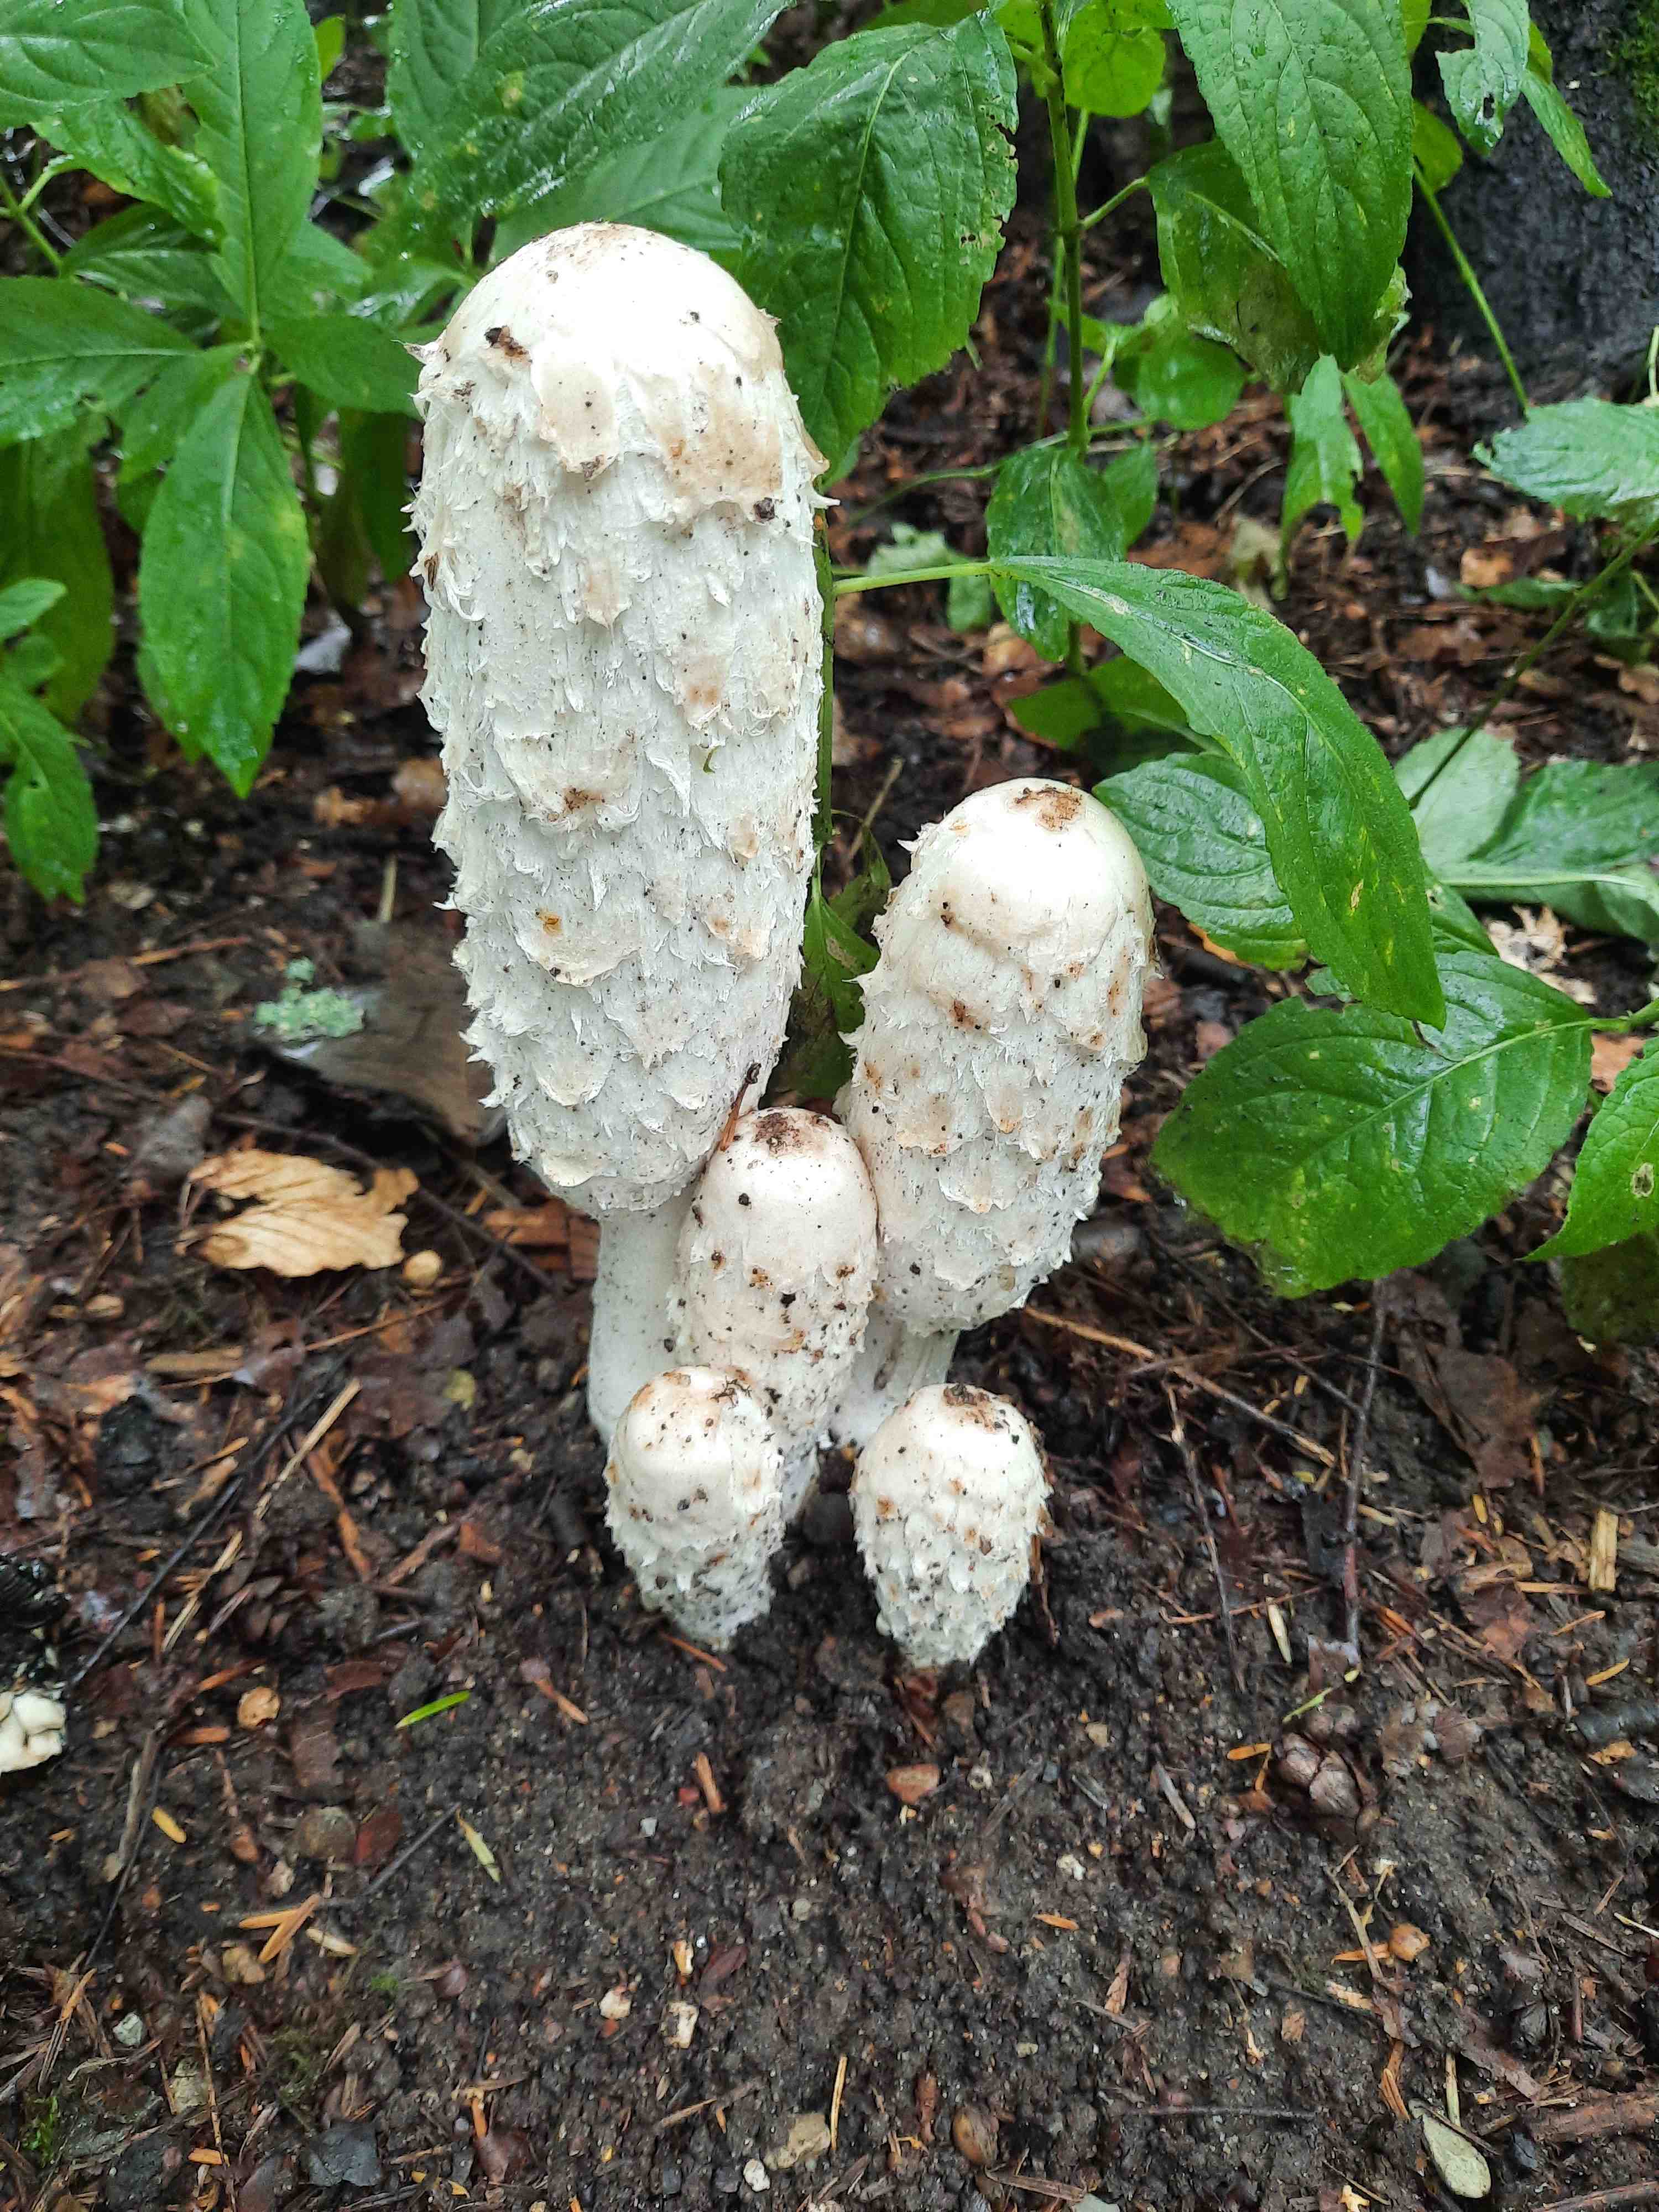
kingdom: Fungi
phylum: Basidiomycota
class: Agaricomycetes
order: Agaricales
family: Agaricaceae
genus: Coprinus
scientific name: Coprinus comatus
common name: stor parykhat
